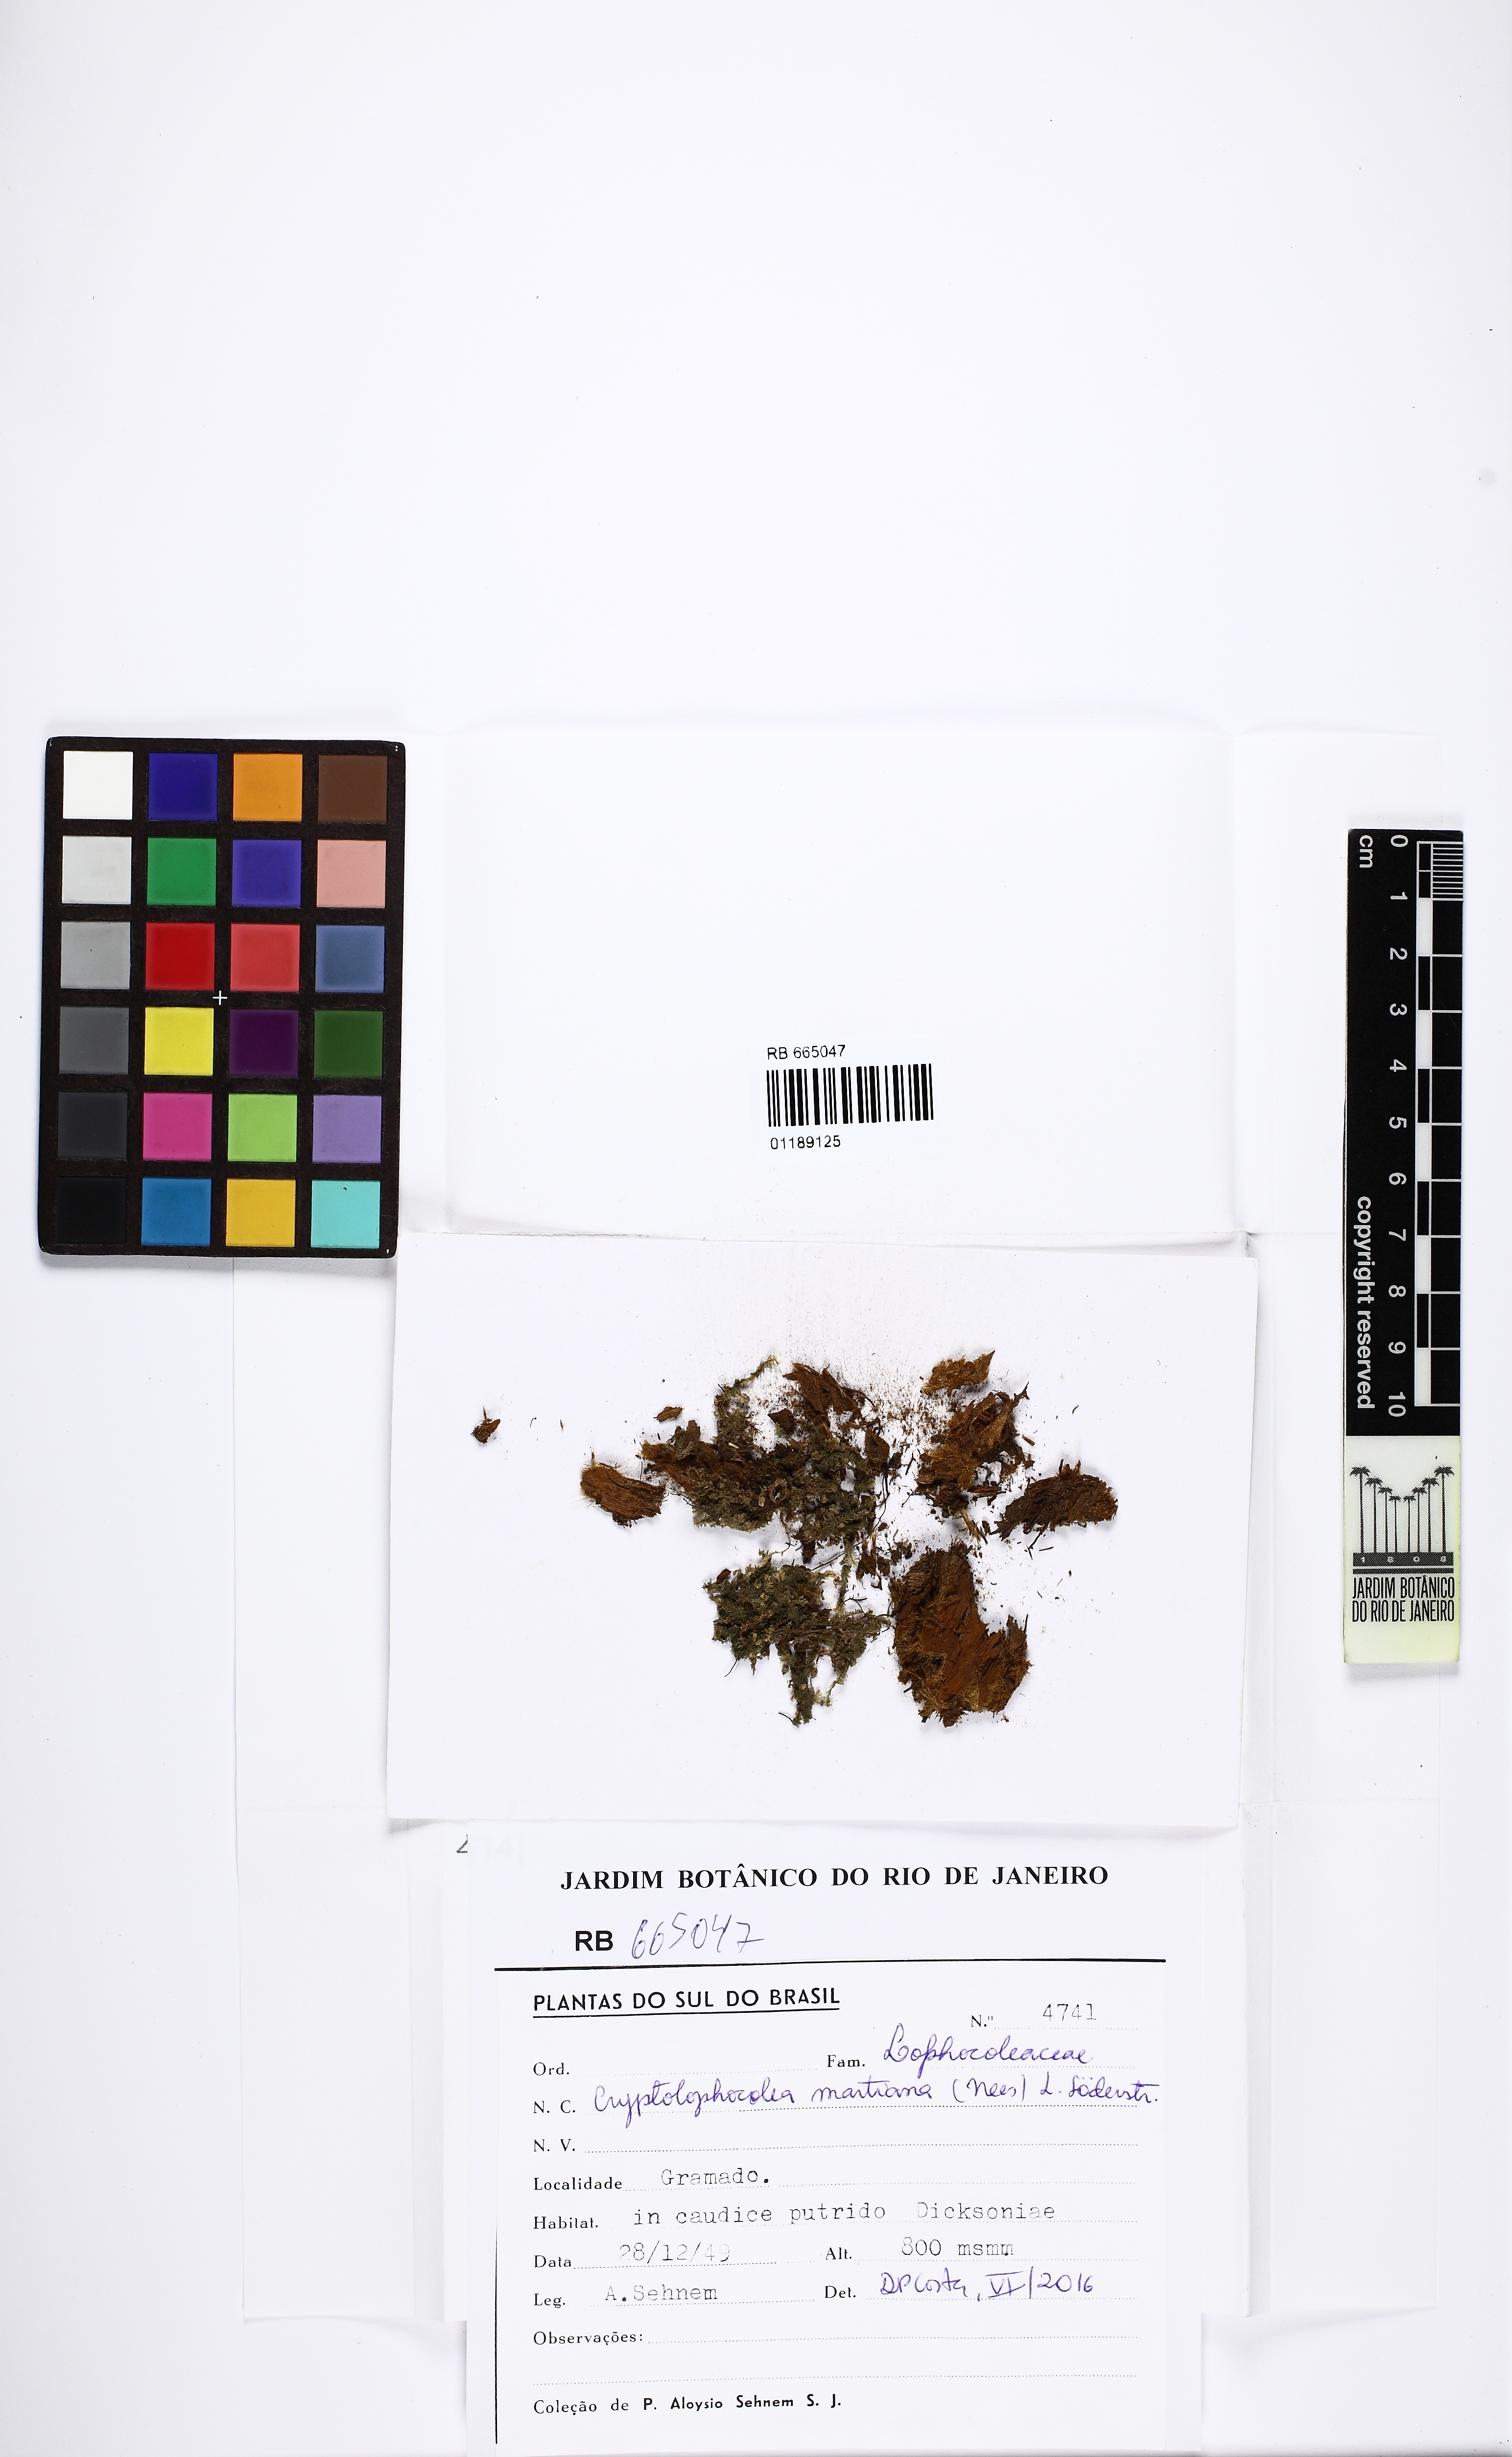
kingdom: Plantae
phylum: Marchantiophyta
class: Jungermanniopsida
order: Jungermanniales
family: Lophocoleaceae
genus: Cryptolophocolea
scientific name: Cryptolophocolea martiana
